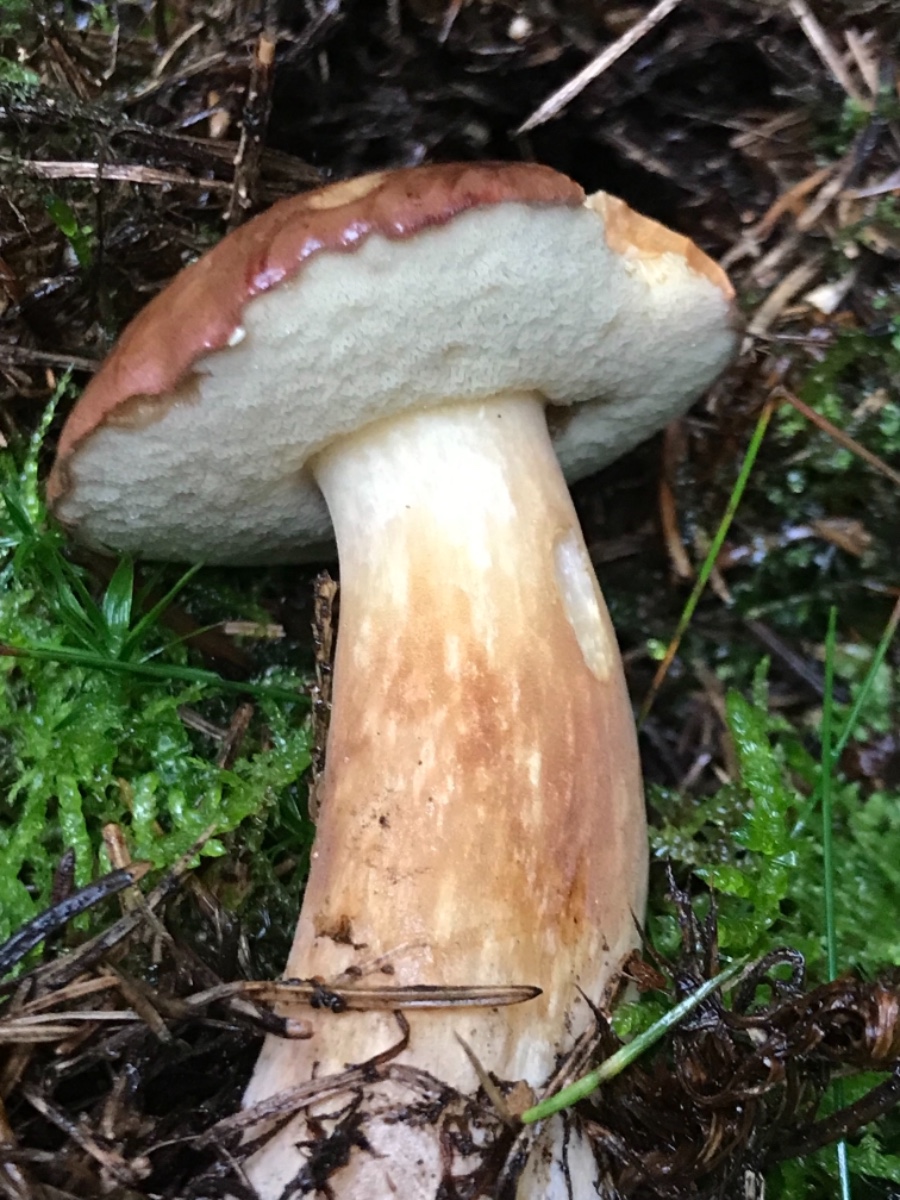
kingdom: Fungi
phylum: Basidiomycota
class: Agaricomycetes
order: Boletales
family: Boletaceae
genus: Boletus
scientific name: Boletus edulis
